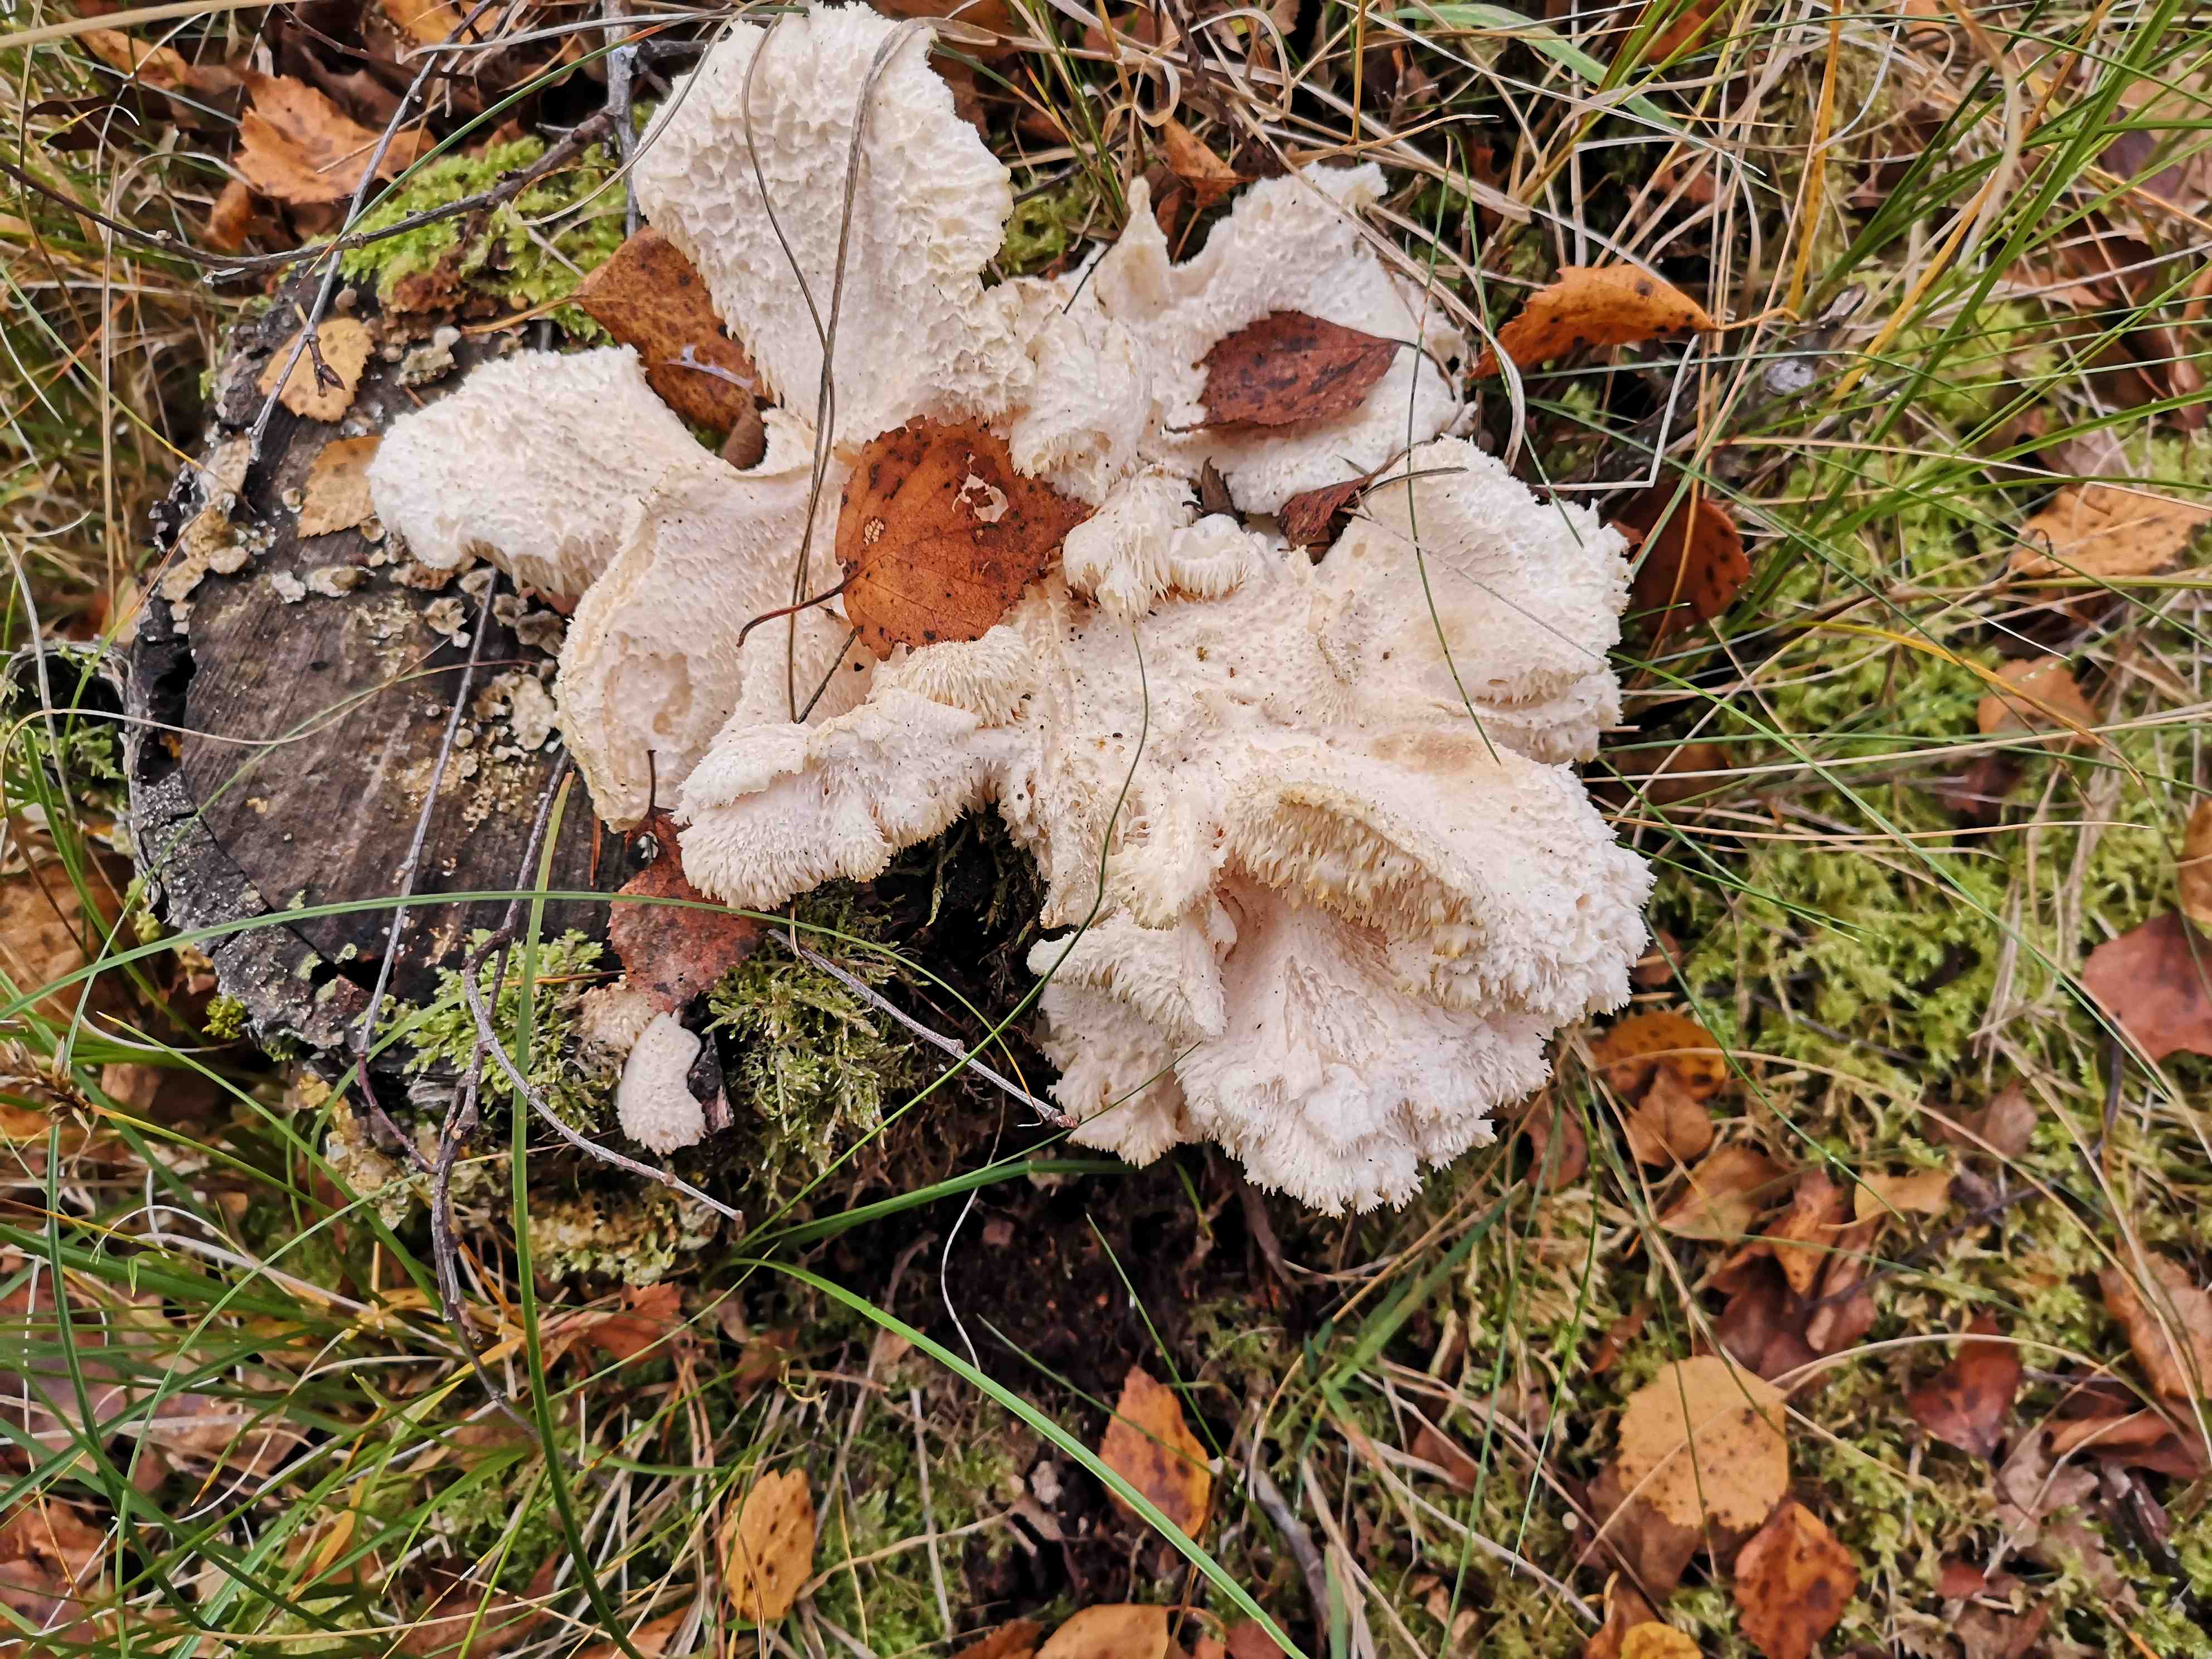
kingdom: Fungi
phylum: Basidiomycota
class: Agaricomycetes
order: Russulales
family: Hericiaceae
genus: Hericium
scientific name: Hericium cirrhatum
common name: børstepigsvamp
